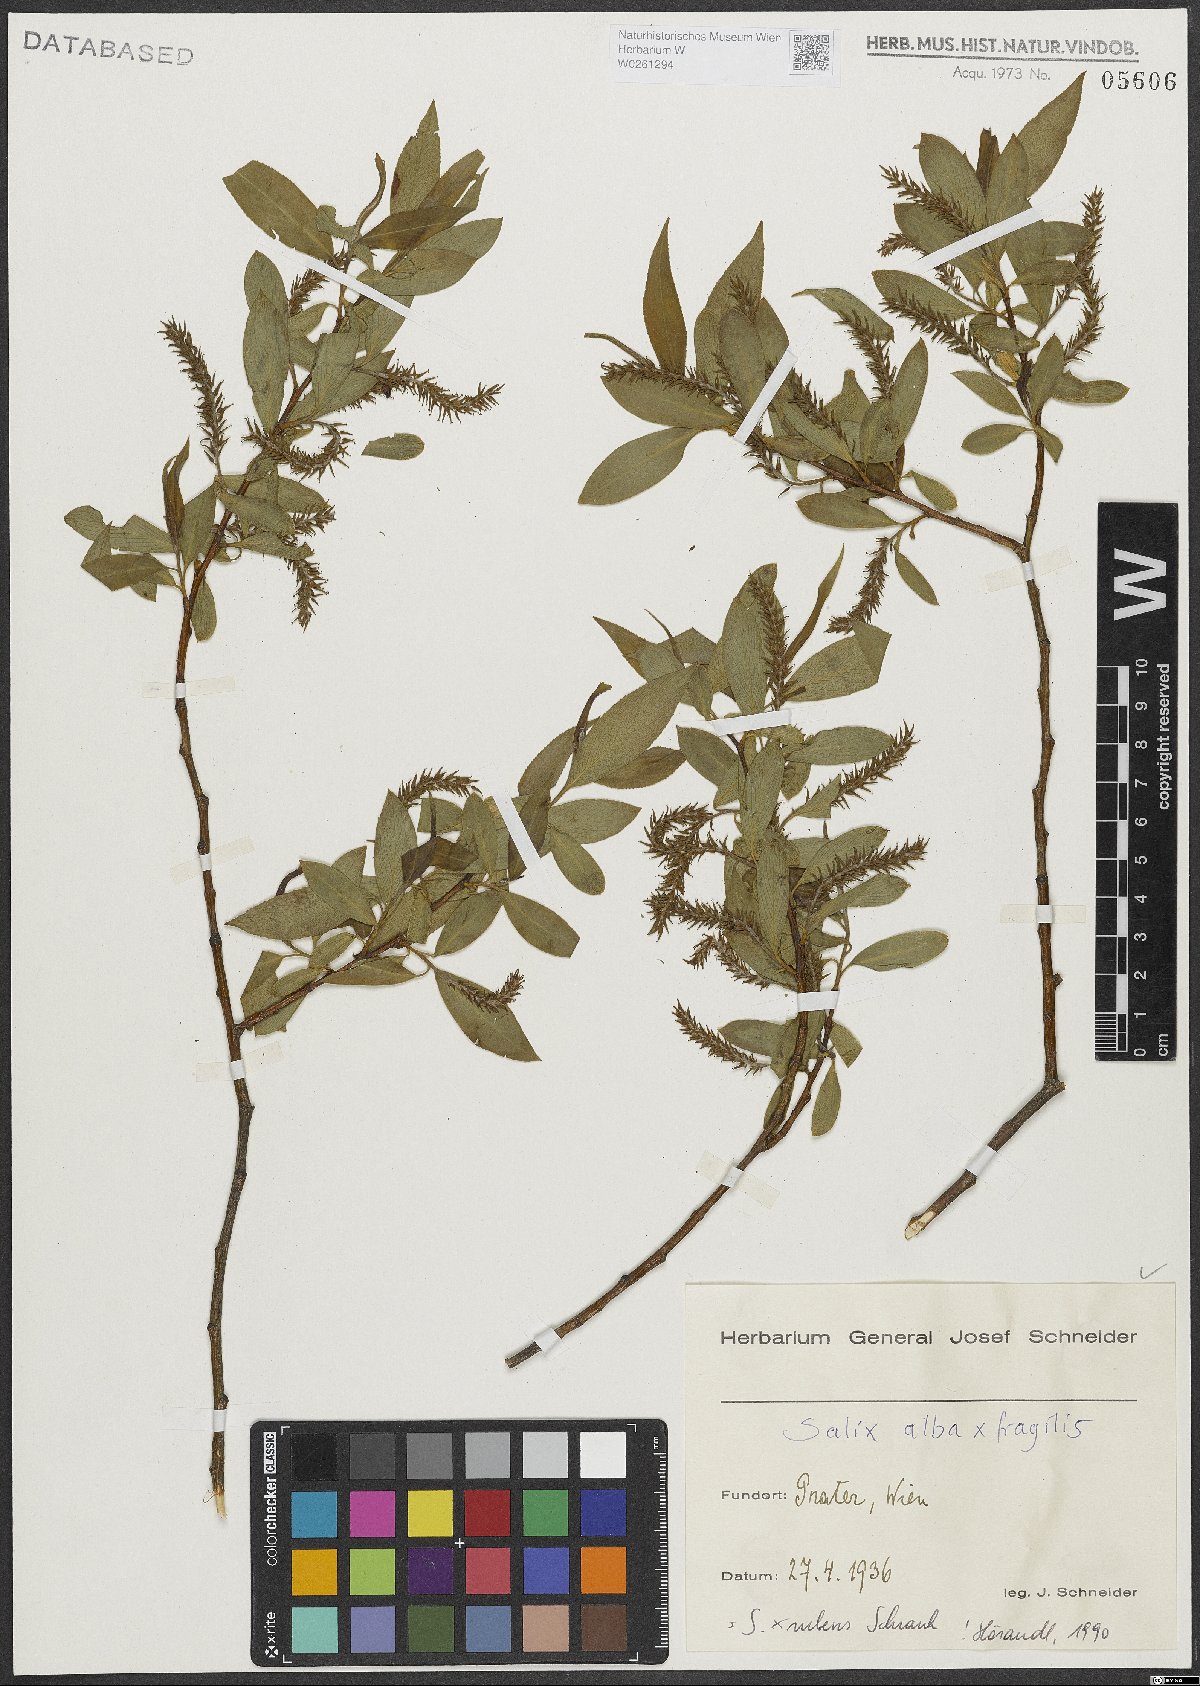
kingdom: Plantae
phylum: Tracheophyta
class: Magnoliopsida
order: Malpighiales
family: Salicaceae
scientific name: Salicaceae
